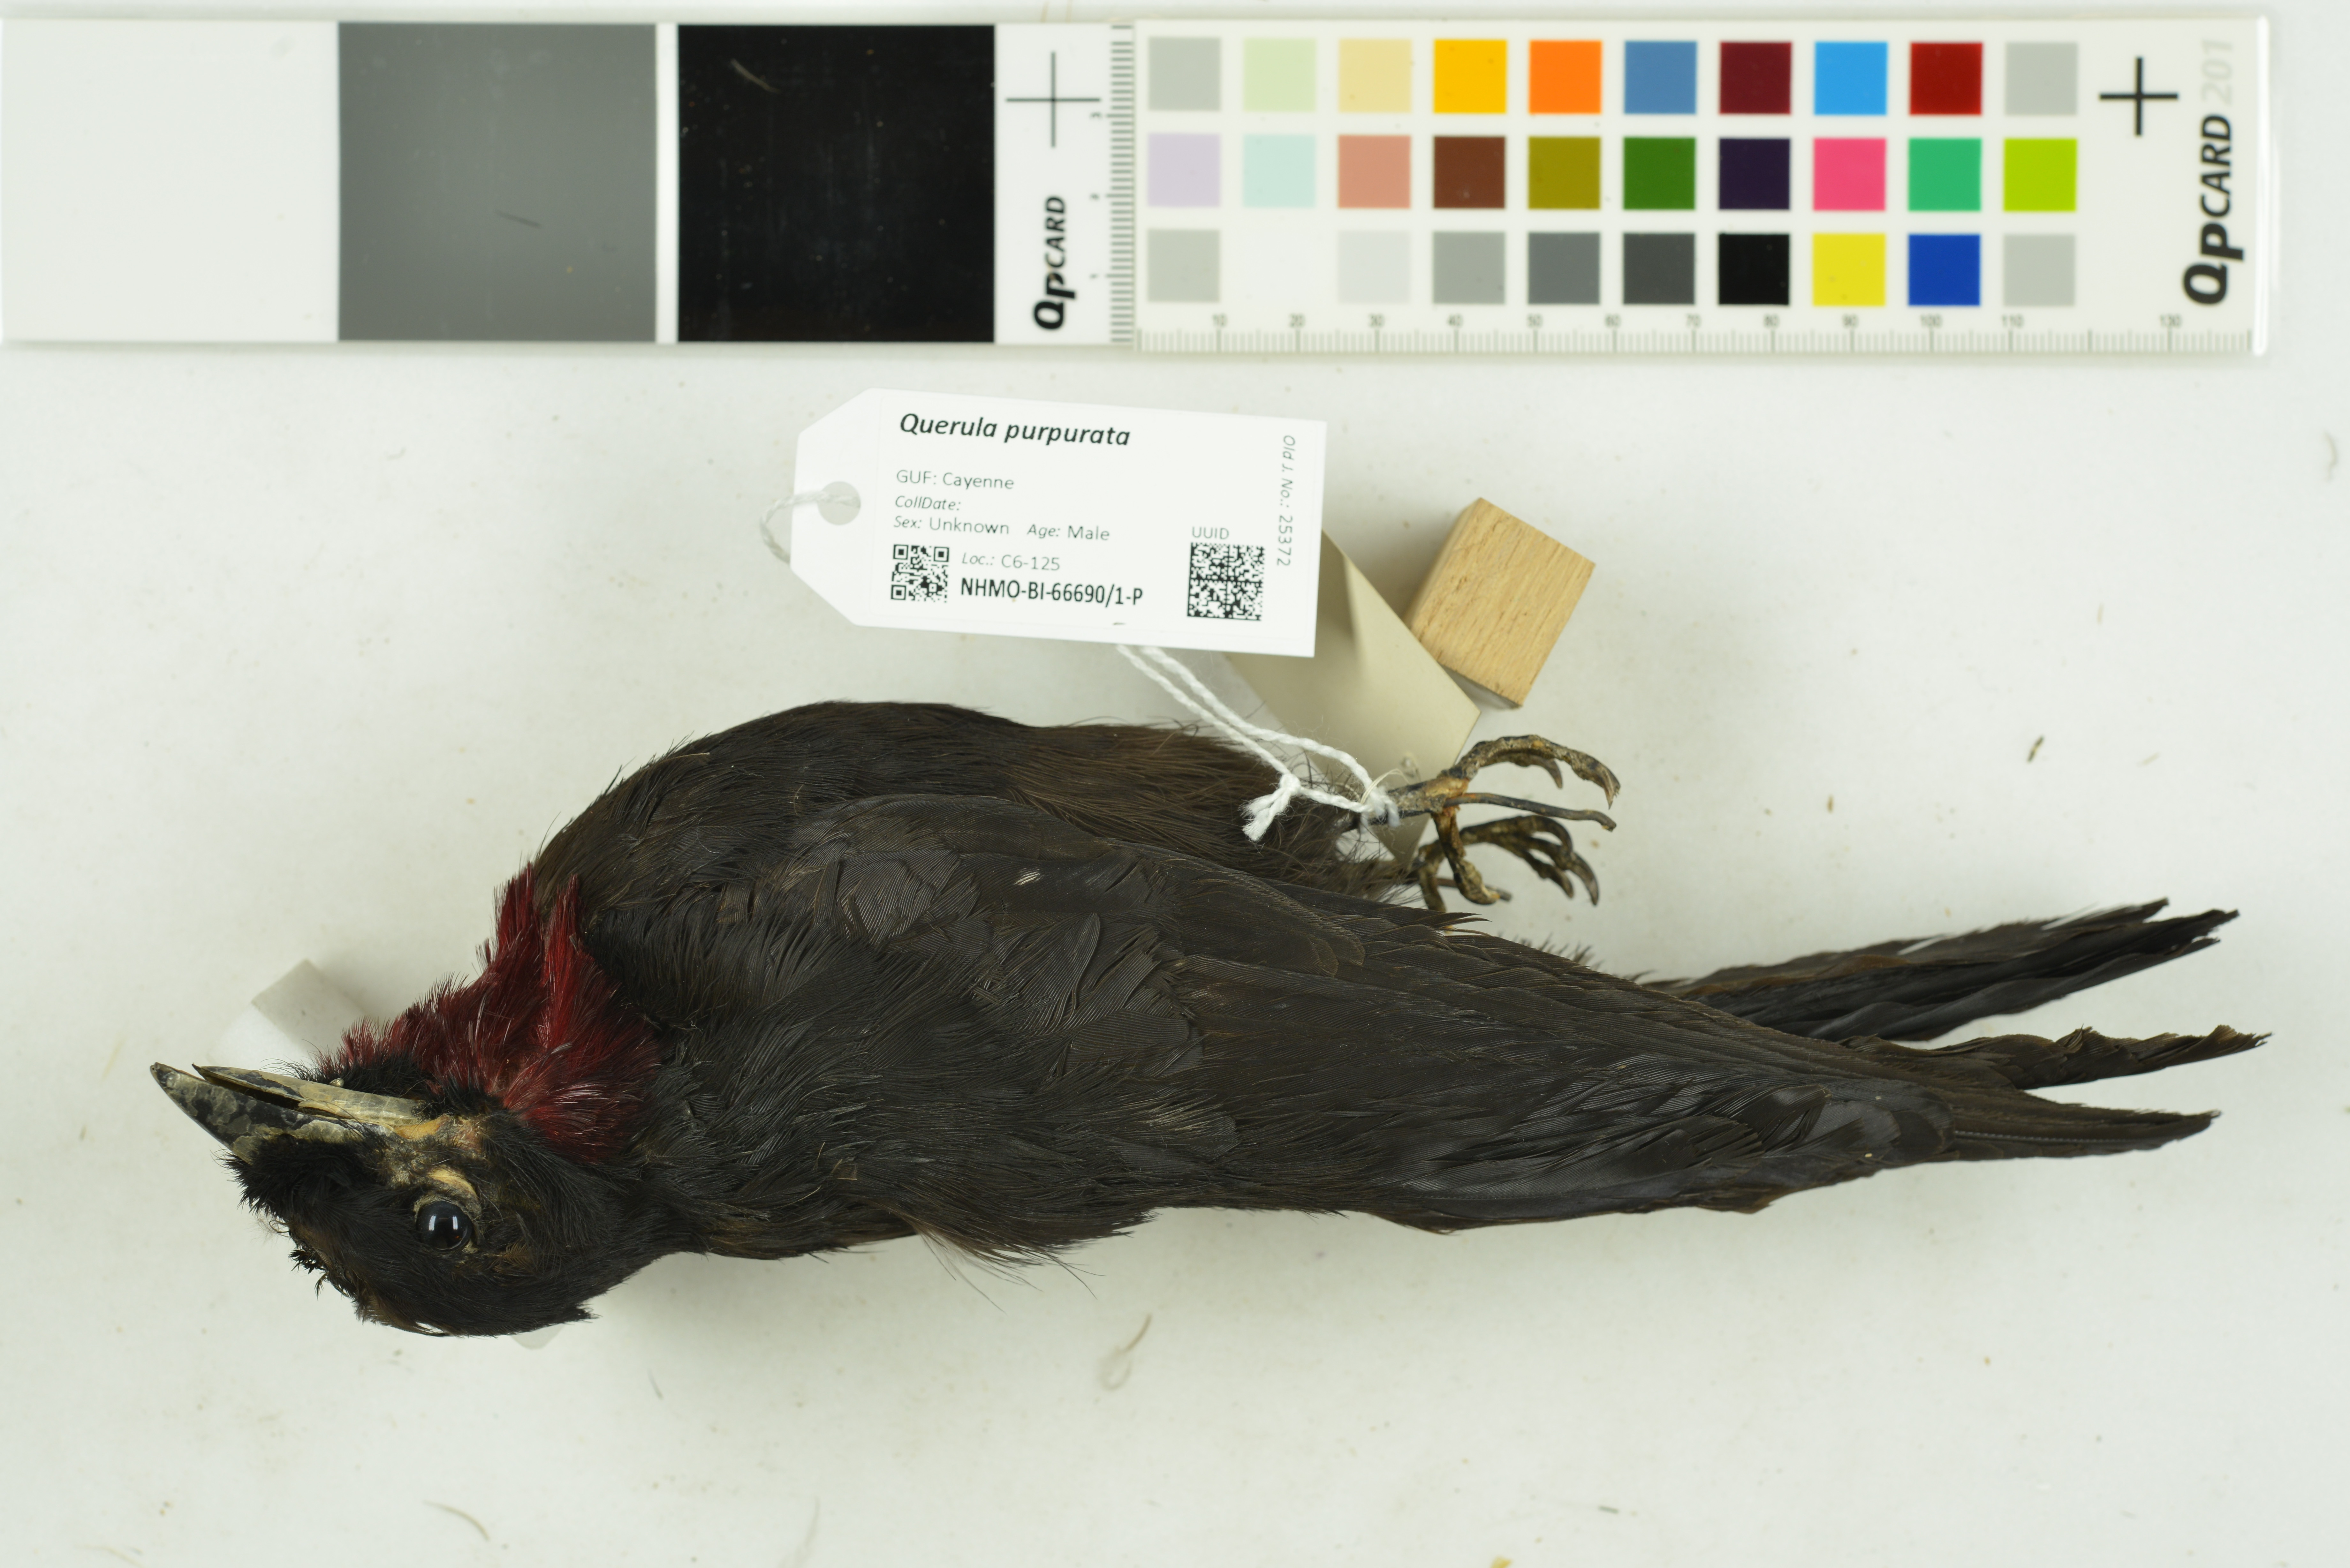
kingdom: Animalia
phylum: Chordata
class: Aves
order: Passeriformes
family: Cotingidae
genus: Querula
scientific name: Querula purpurata
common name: Purple-throated fruitcrow
